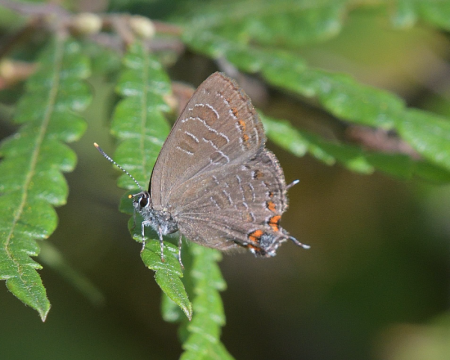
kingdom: Animalia
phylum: Arthropoda
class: Insecta
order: Lepidoptera
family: Lycaenidae
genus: Satyrium
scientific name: Satyrium liparops
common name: Striped Hairstreak
